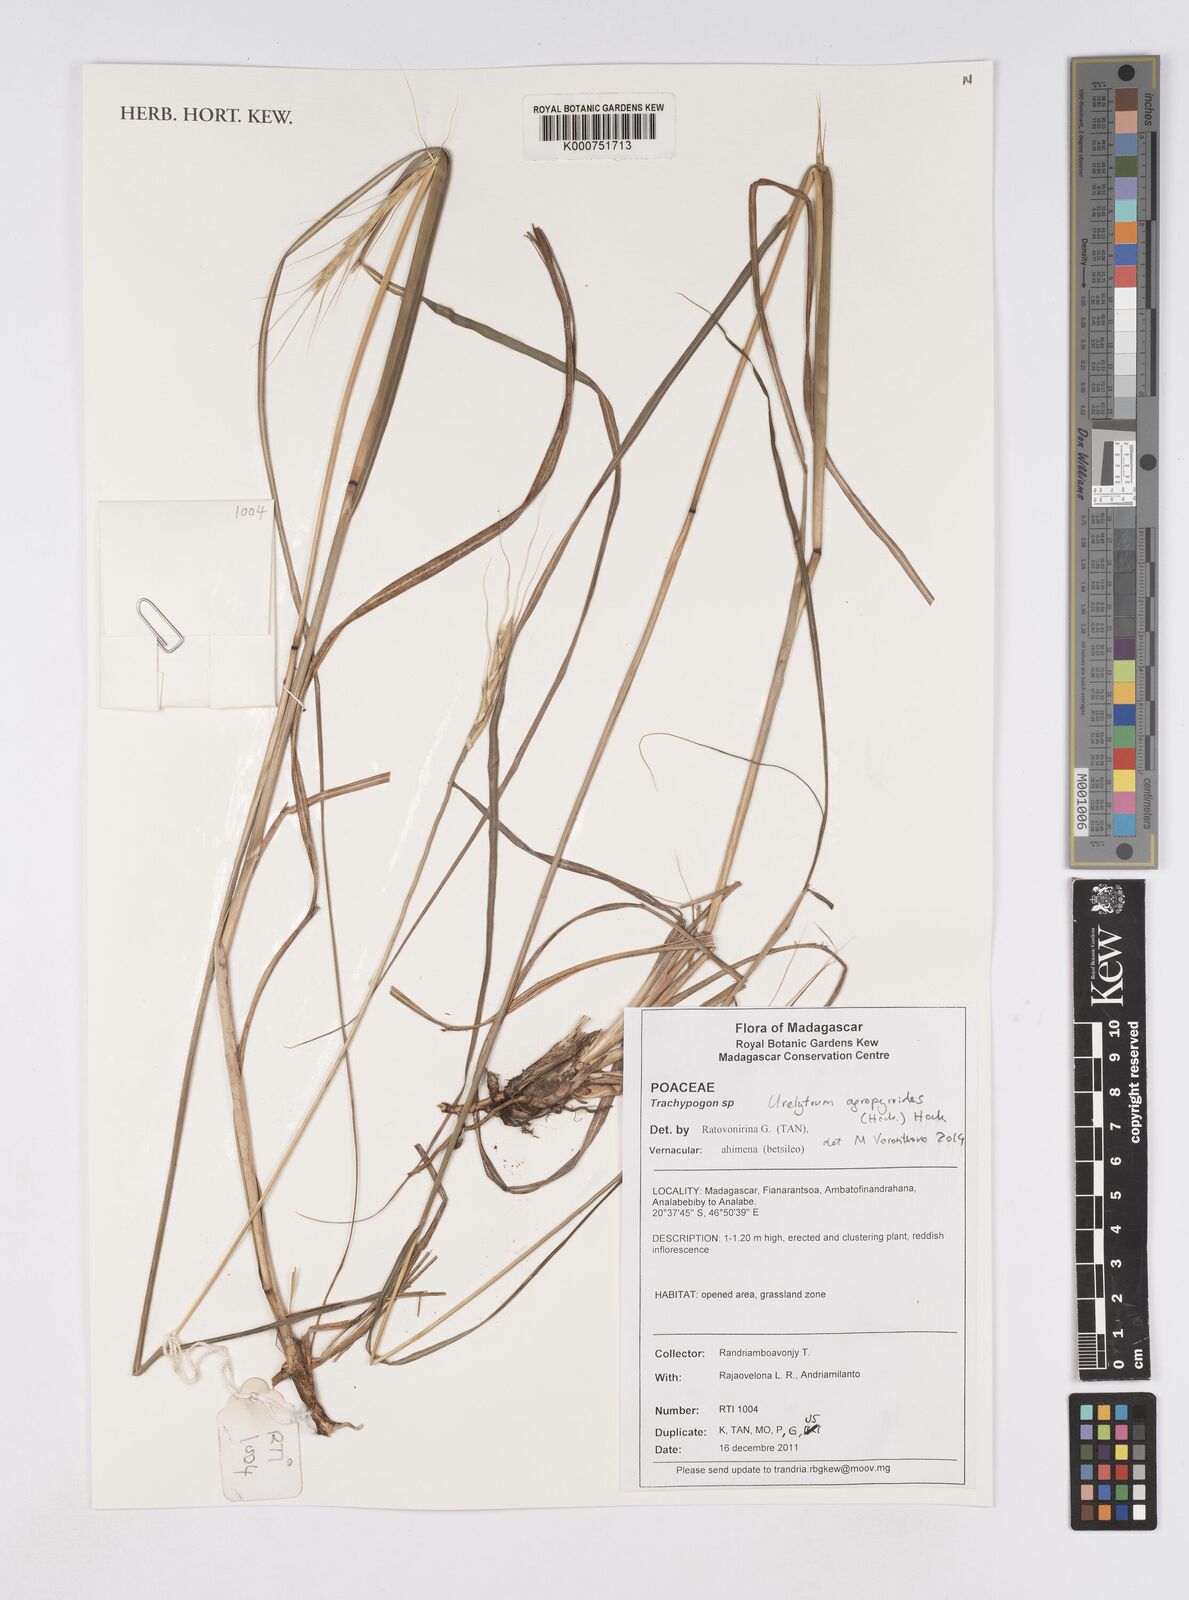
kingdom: Plantae
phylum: Tracheophyta
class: Liliopsida
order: Poales
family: Poaceae
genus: Urelytrum
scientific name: Urelytrum agropyroides
